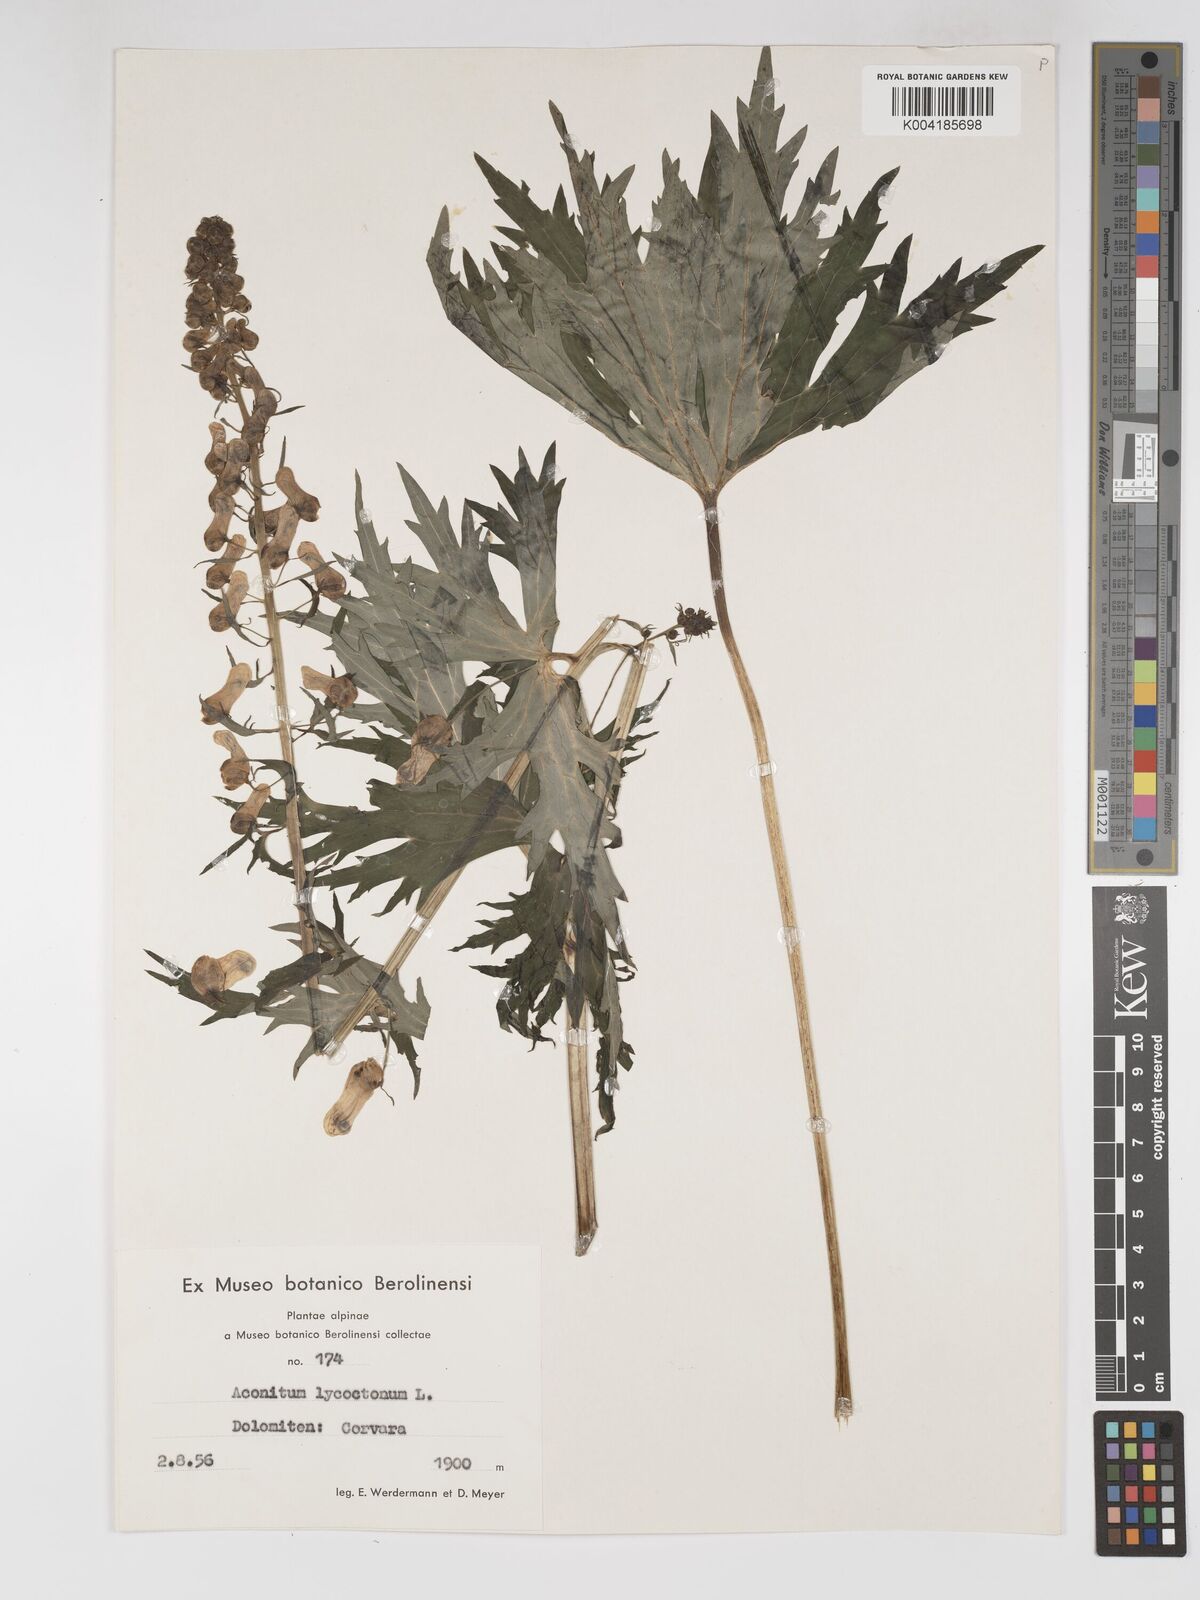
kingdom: Plantae
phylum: Tracheophyta
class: Magnoliopsida
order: Ranunculales
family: Ranunculaceae
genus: Aconitum
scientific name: Aconitum lycoctonum
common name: Wolf's-bane
